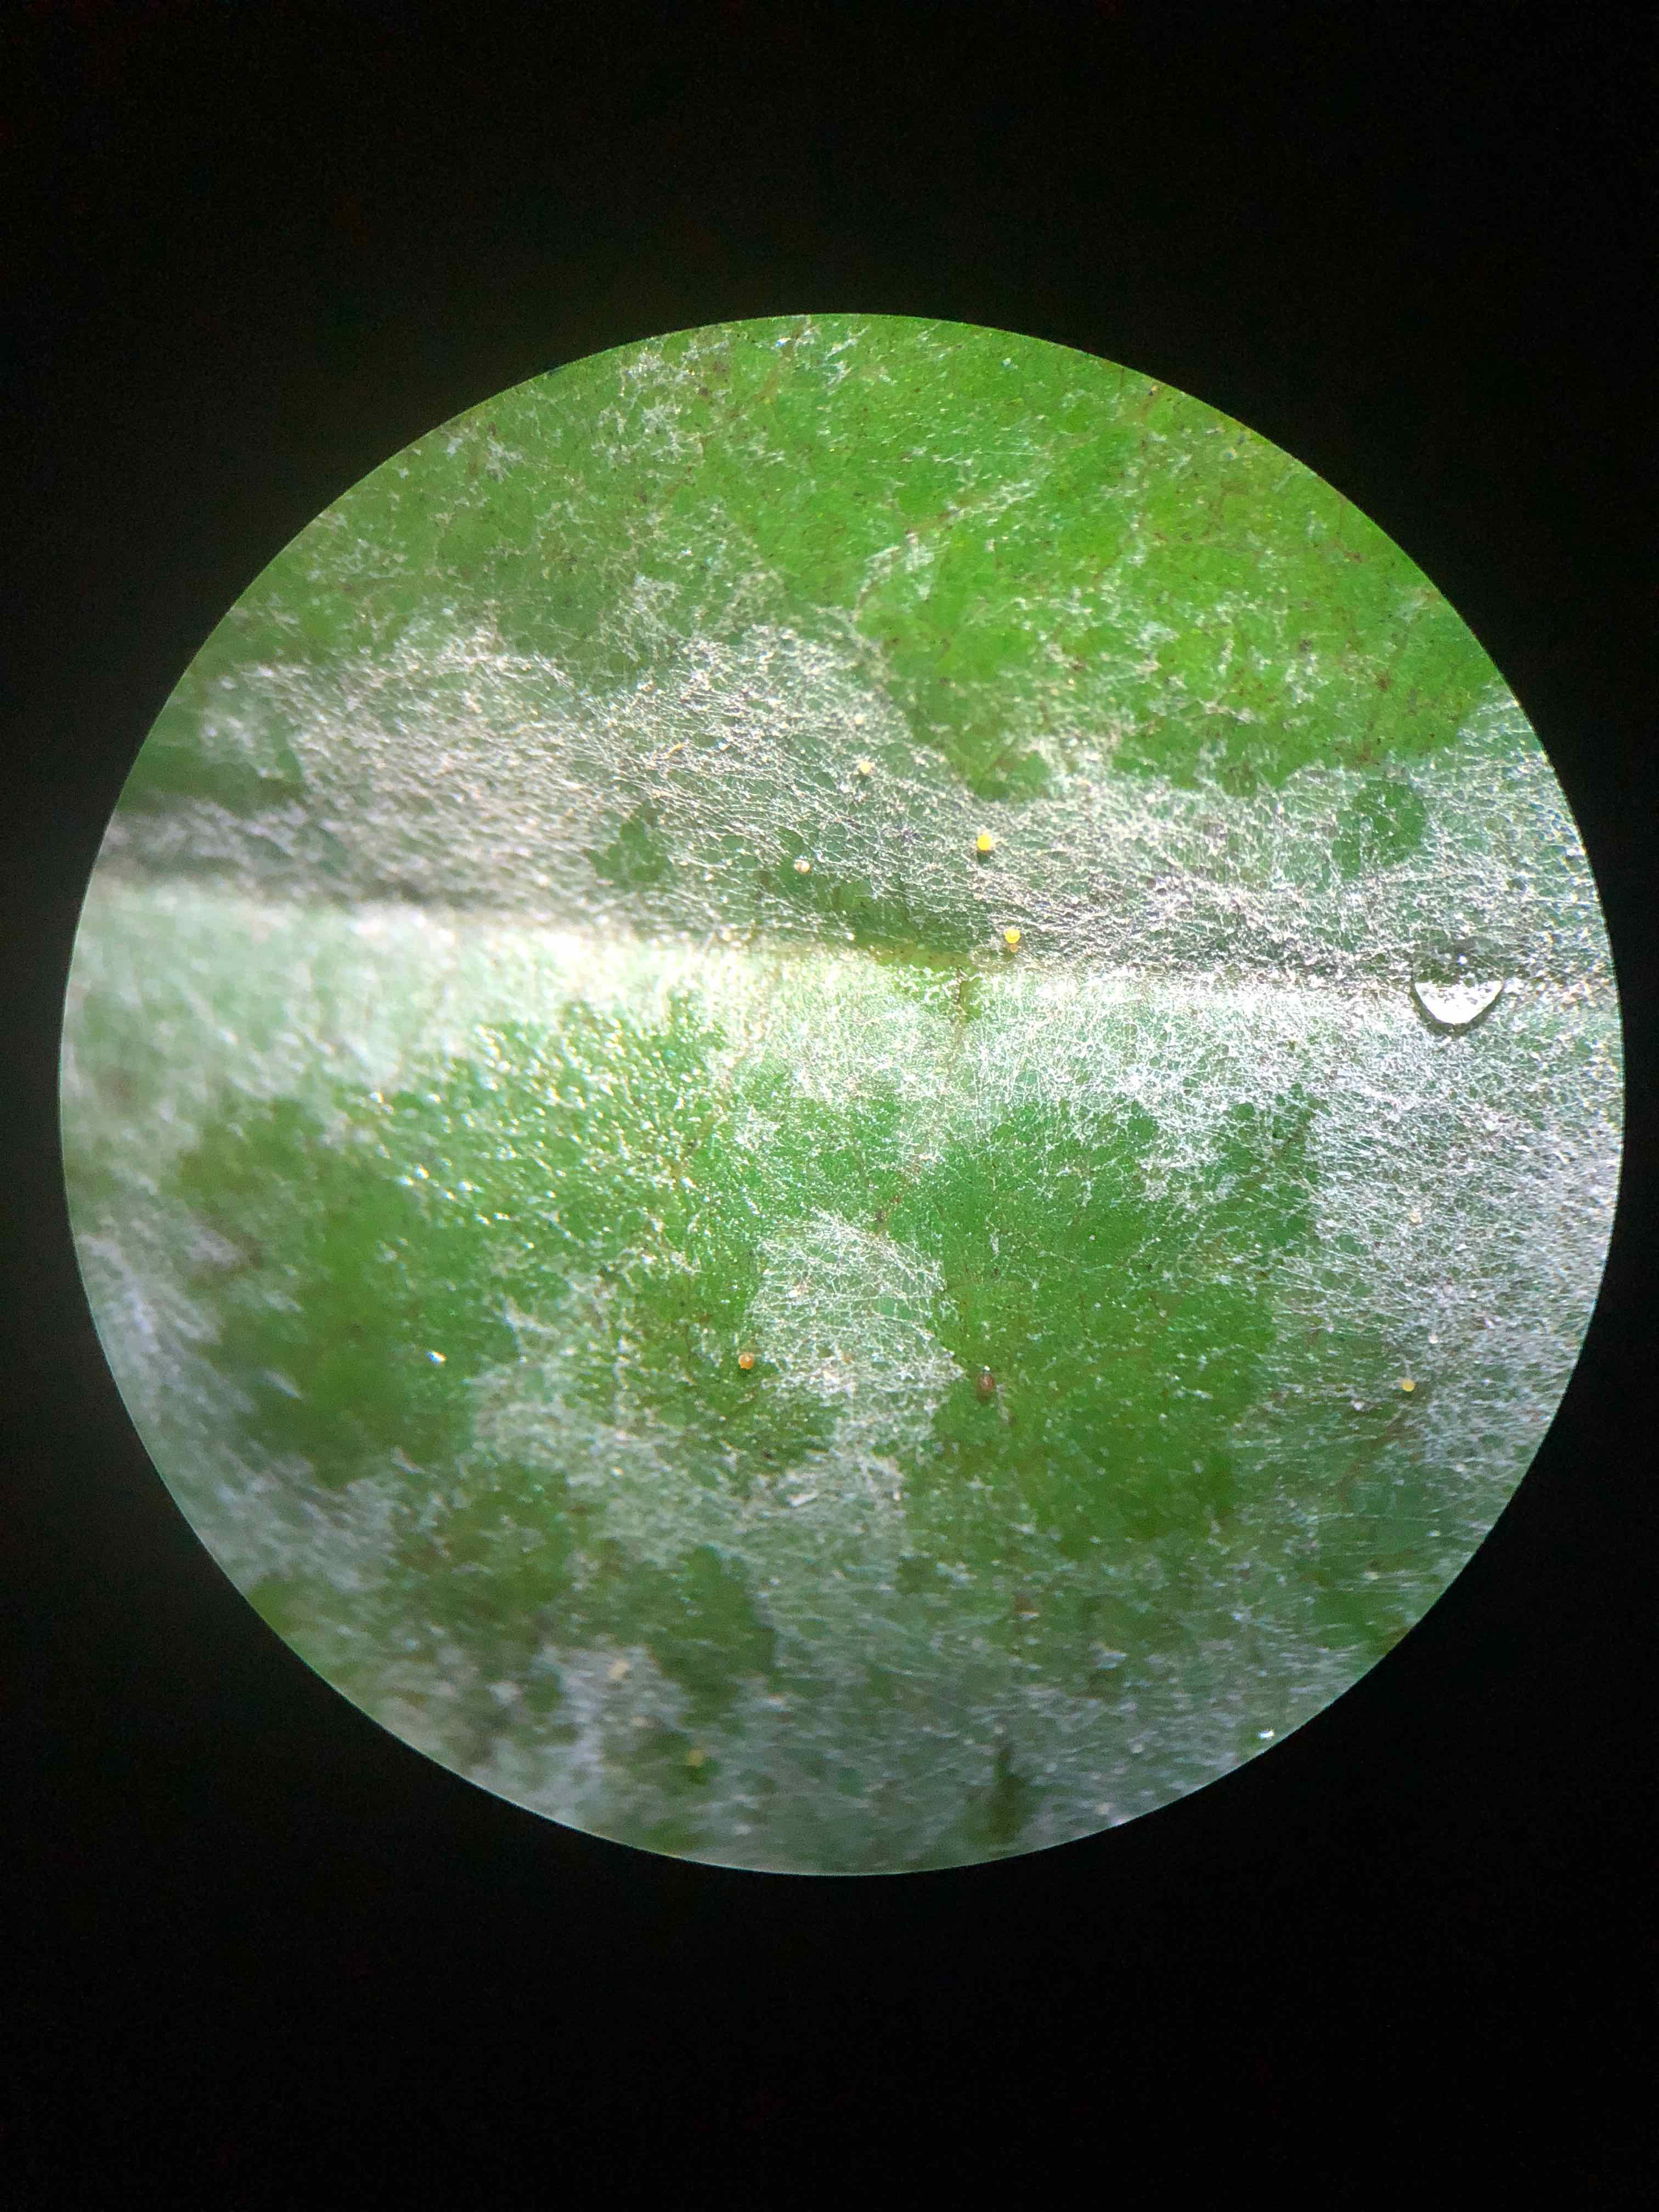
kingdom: Fungi
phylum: Ascomycota
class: Leotiomycetes
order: Helotiales
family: Erysiphaceae
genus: Erysiphe
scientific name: Erysiphe divaricata
